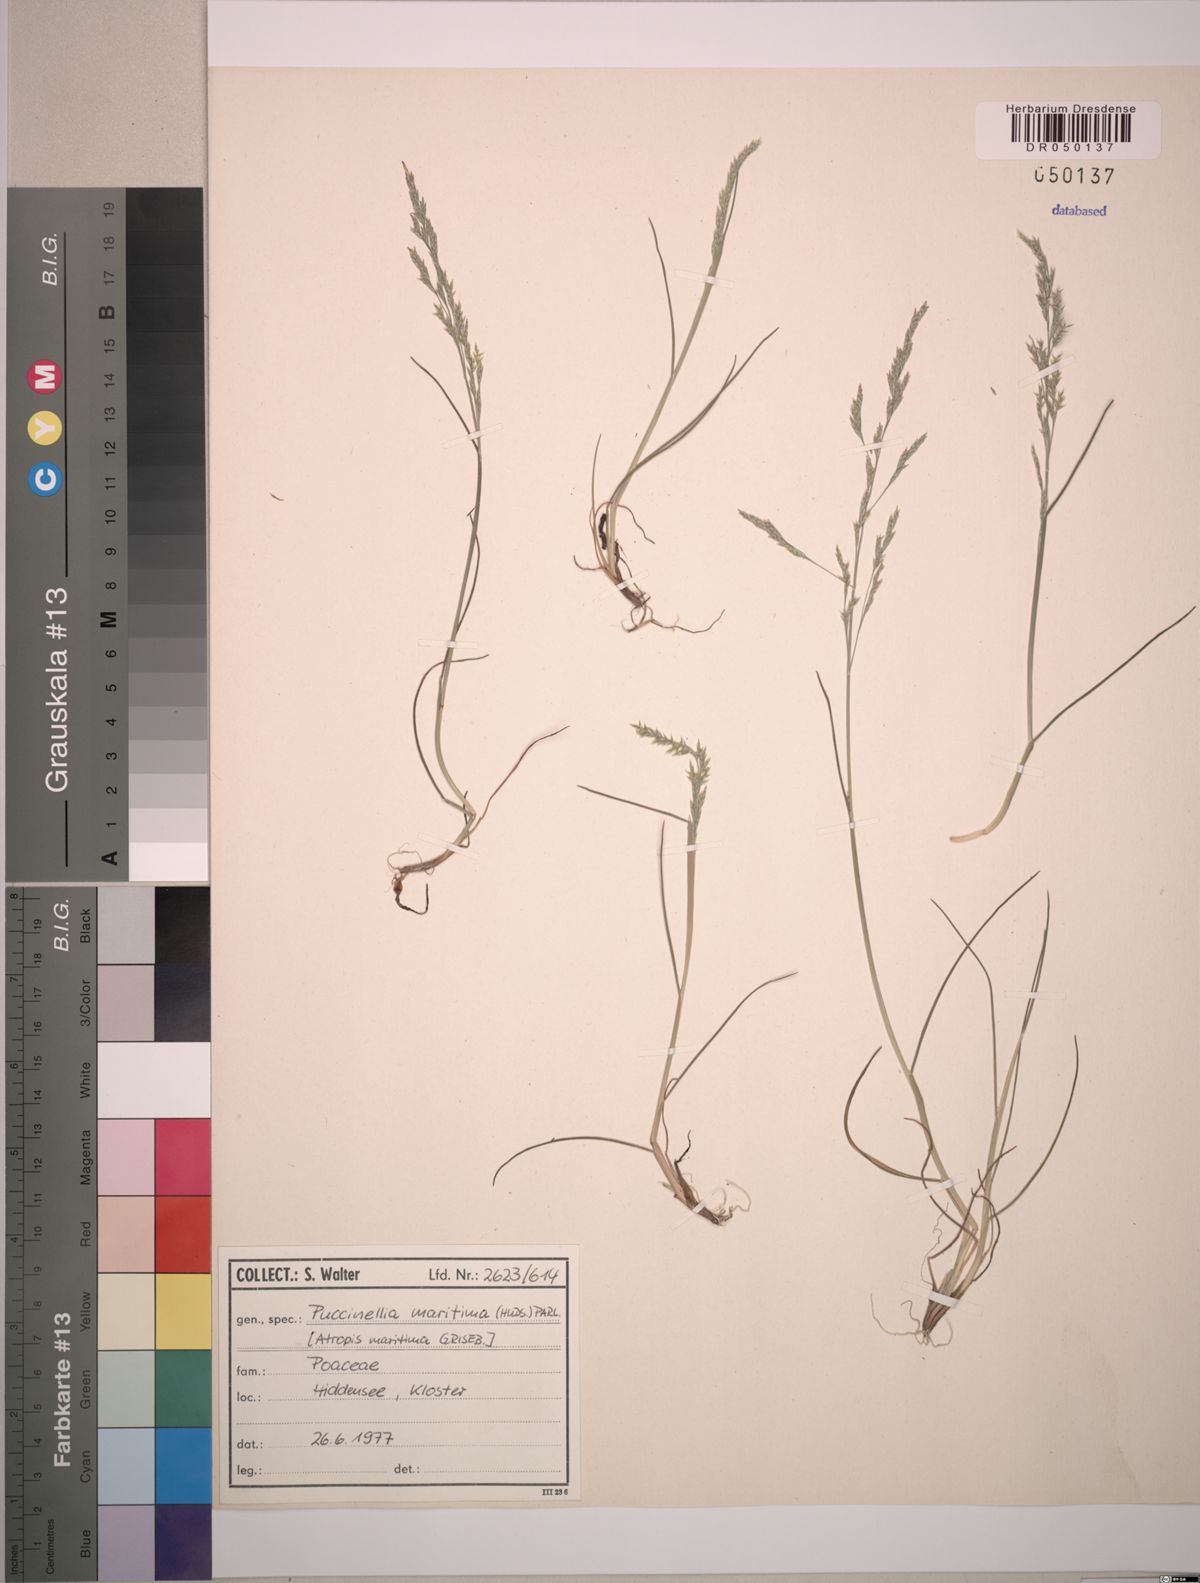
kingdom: Plantae
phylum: Tracheophyta
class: Liliopsida
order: Poales
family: Poaceae
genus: Puccinellia
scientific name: Puccinellia maritima
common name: Common saltmarsh grass
